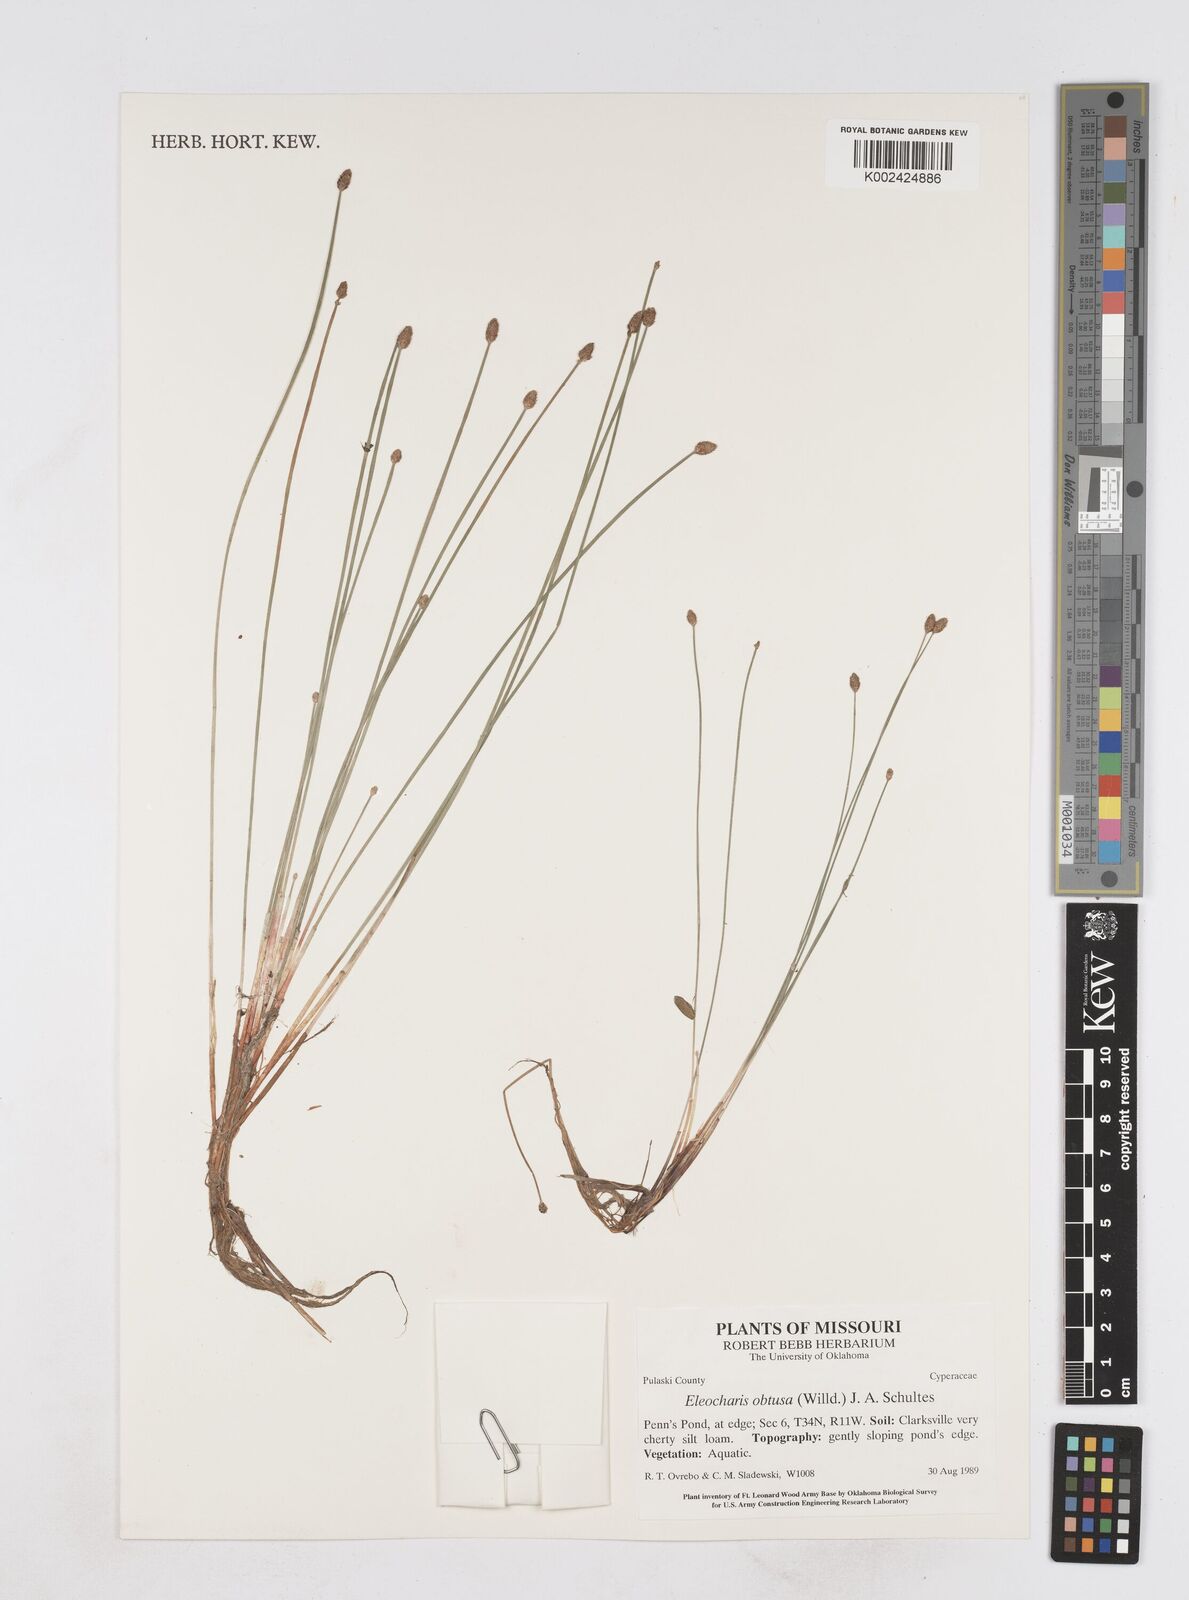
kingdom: Plantae
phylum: Tracheophyta
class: Liliopsida
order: Poales
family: Cyperaceae
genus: Eleocharis
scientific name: Eleocharis obtusa
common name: Blunt spikerush
